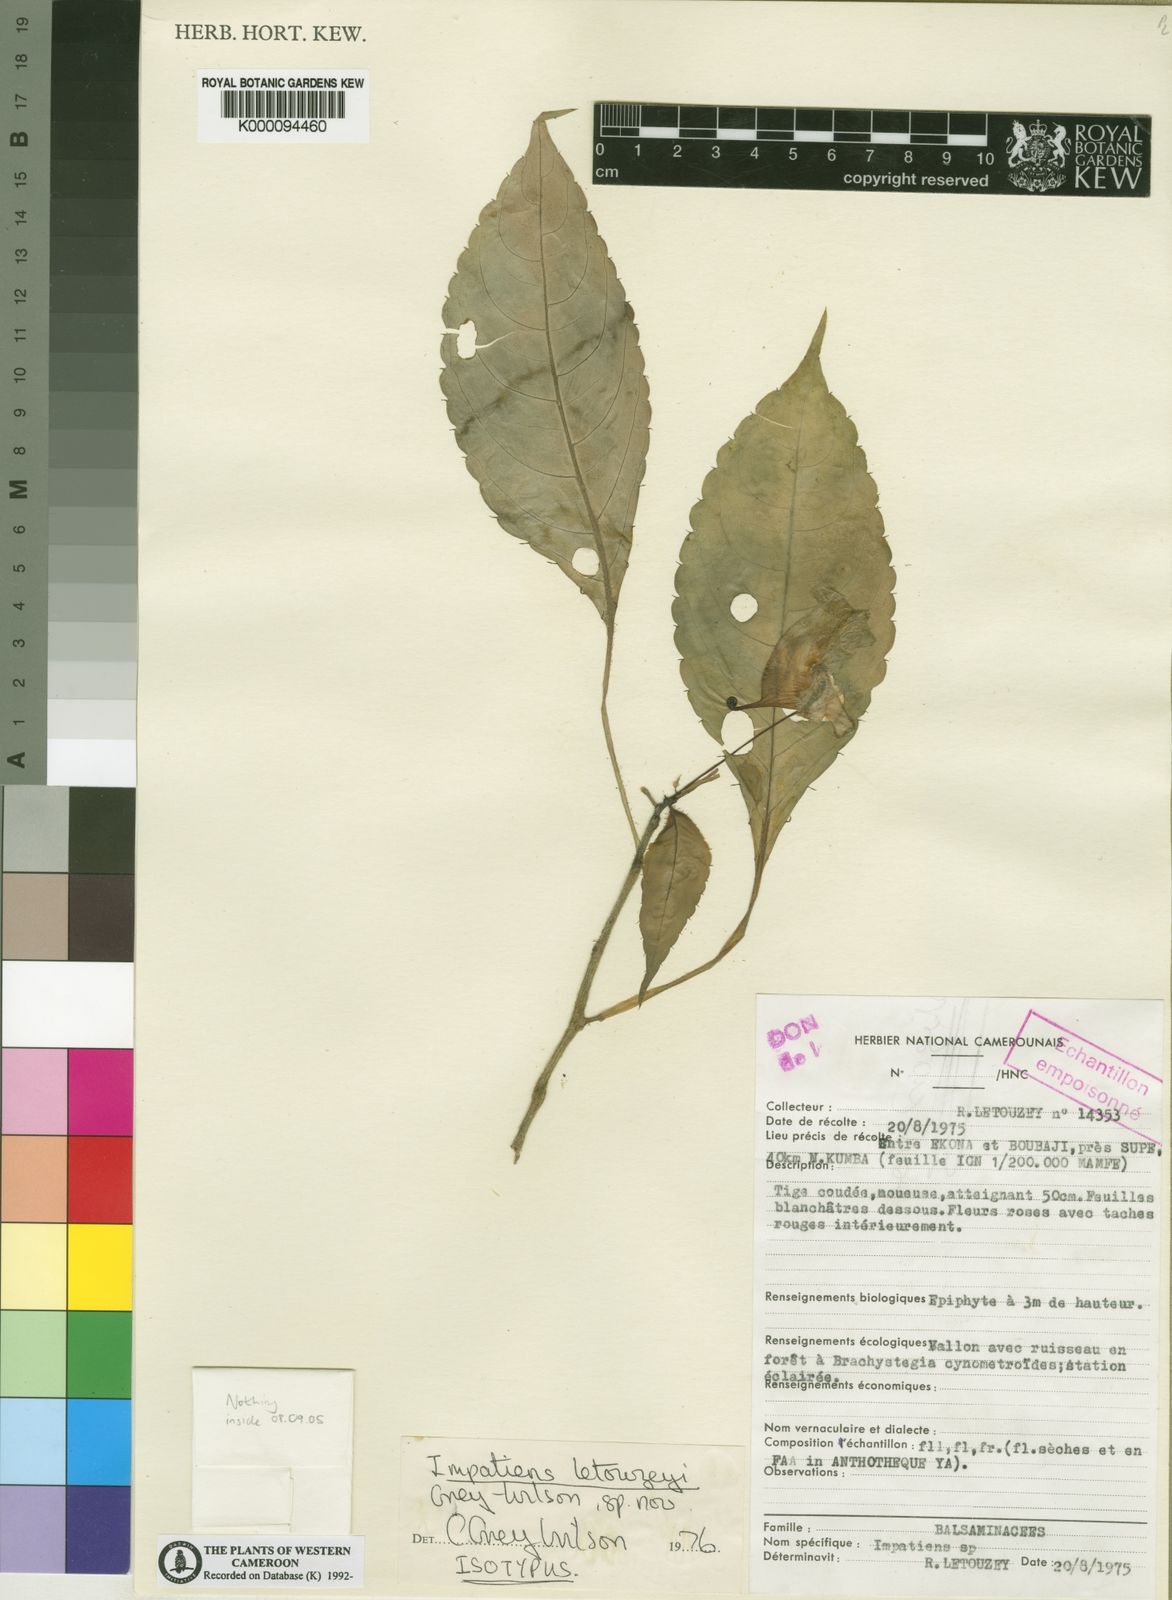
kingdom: Plantae
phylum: Tracheophyta
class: Magnoliopsida
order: Ericales
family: Balsaminaceae
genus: Impatiens
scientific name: Impatiens letouzeyi
